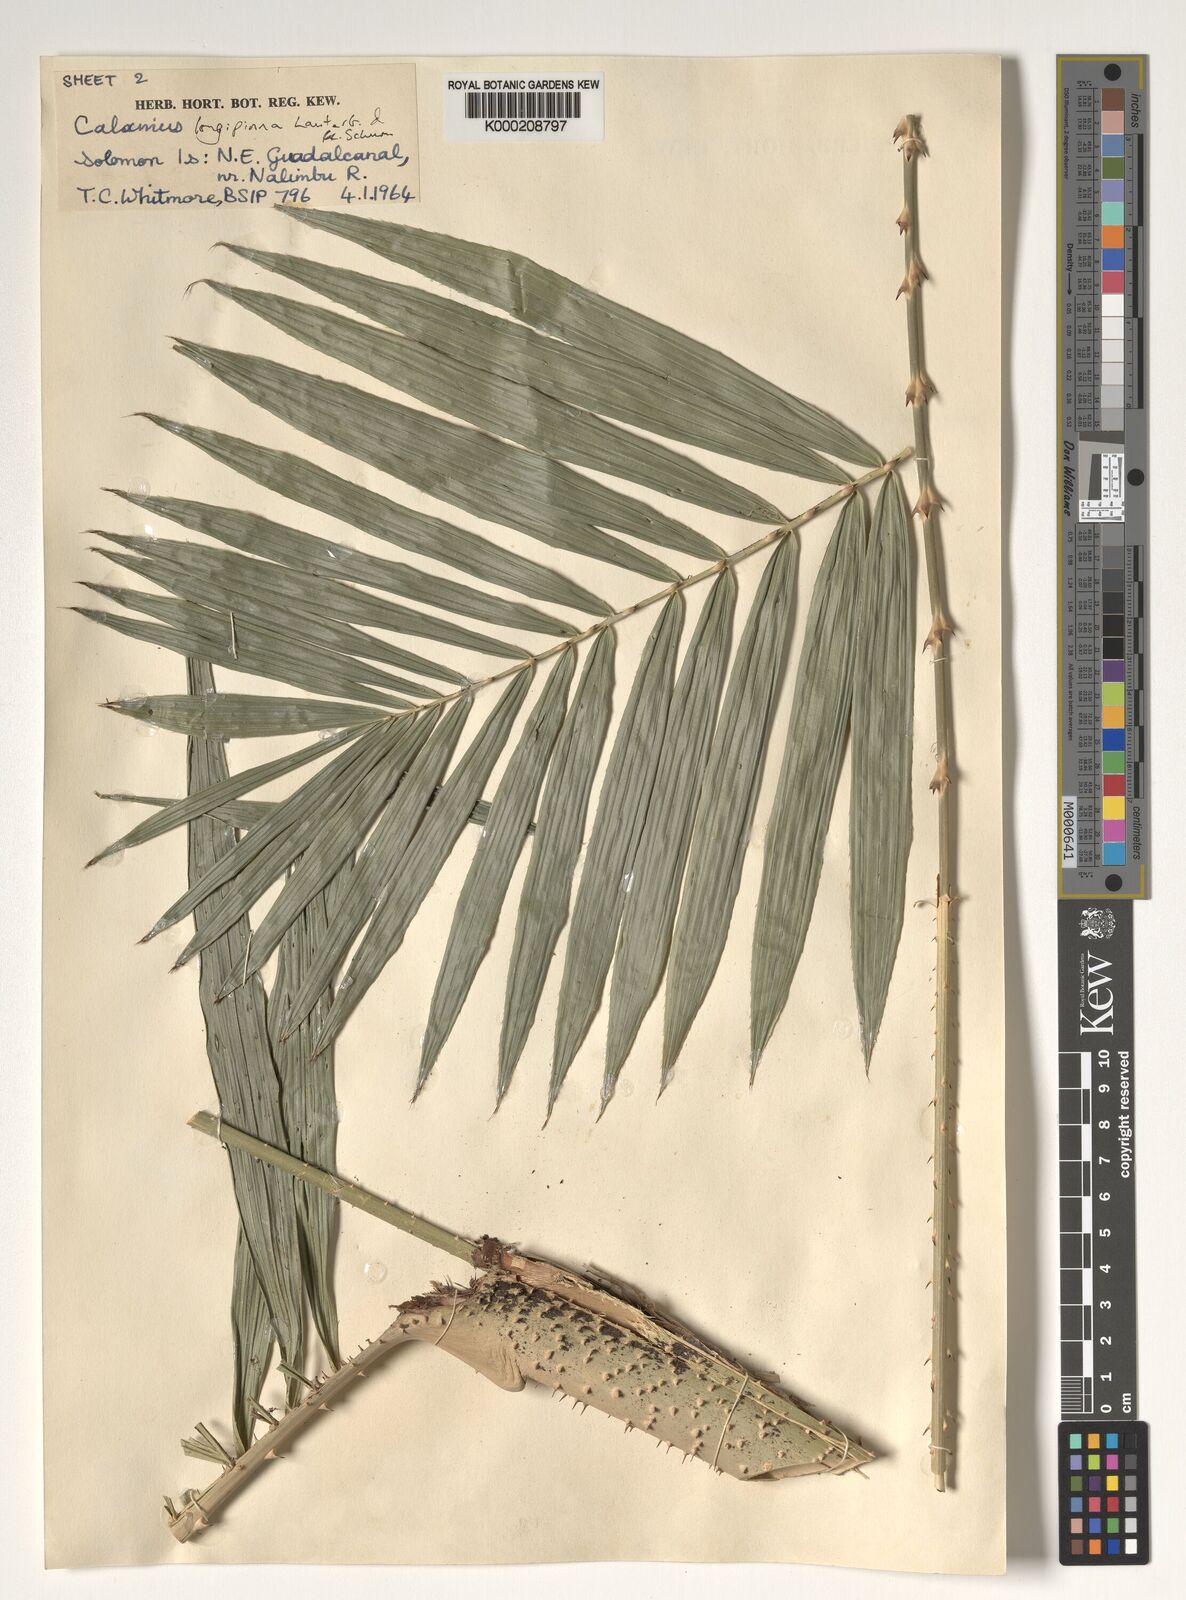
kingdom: Plantae
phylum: Tracheophyta
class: Liliopsida
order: Arecales
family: Arecaceae
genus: Calamus
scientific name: Calamus longipinna
